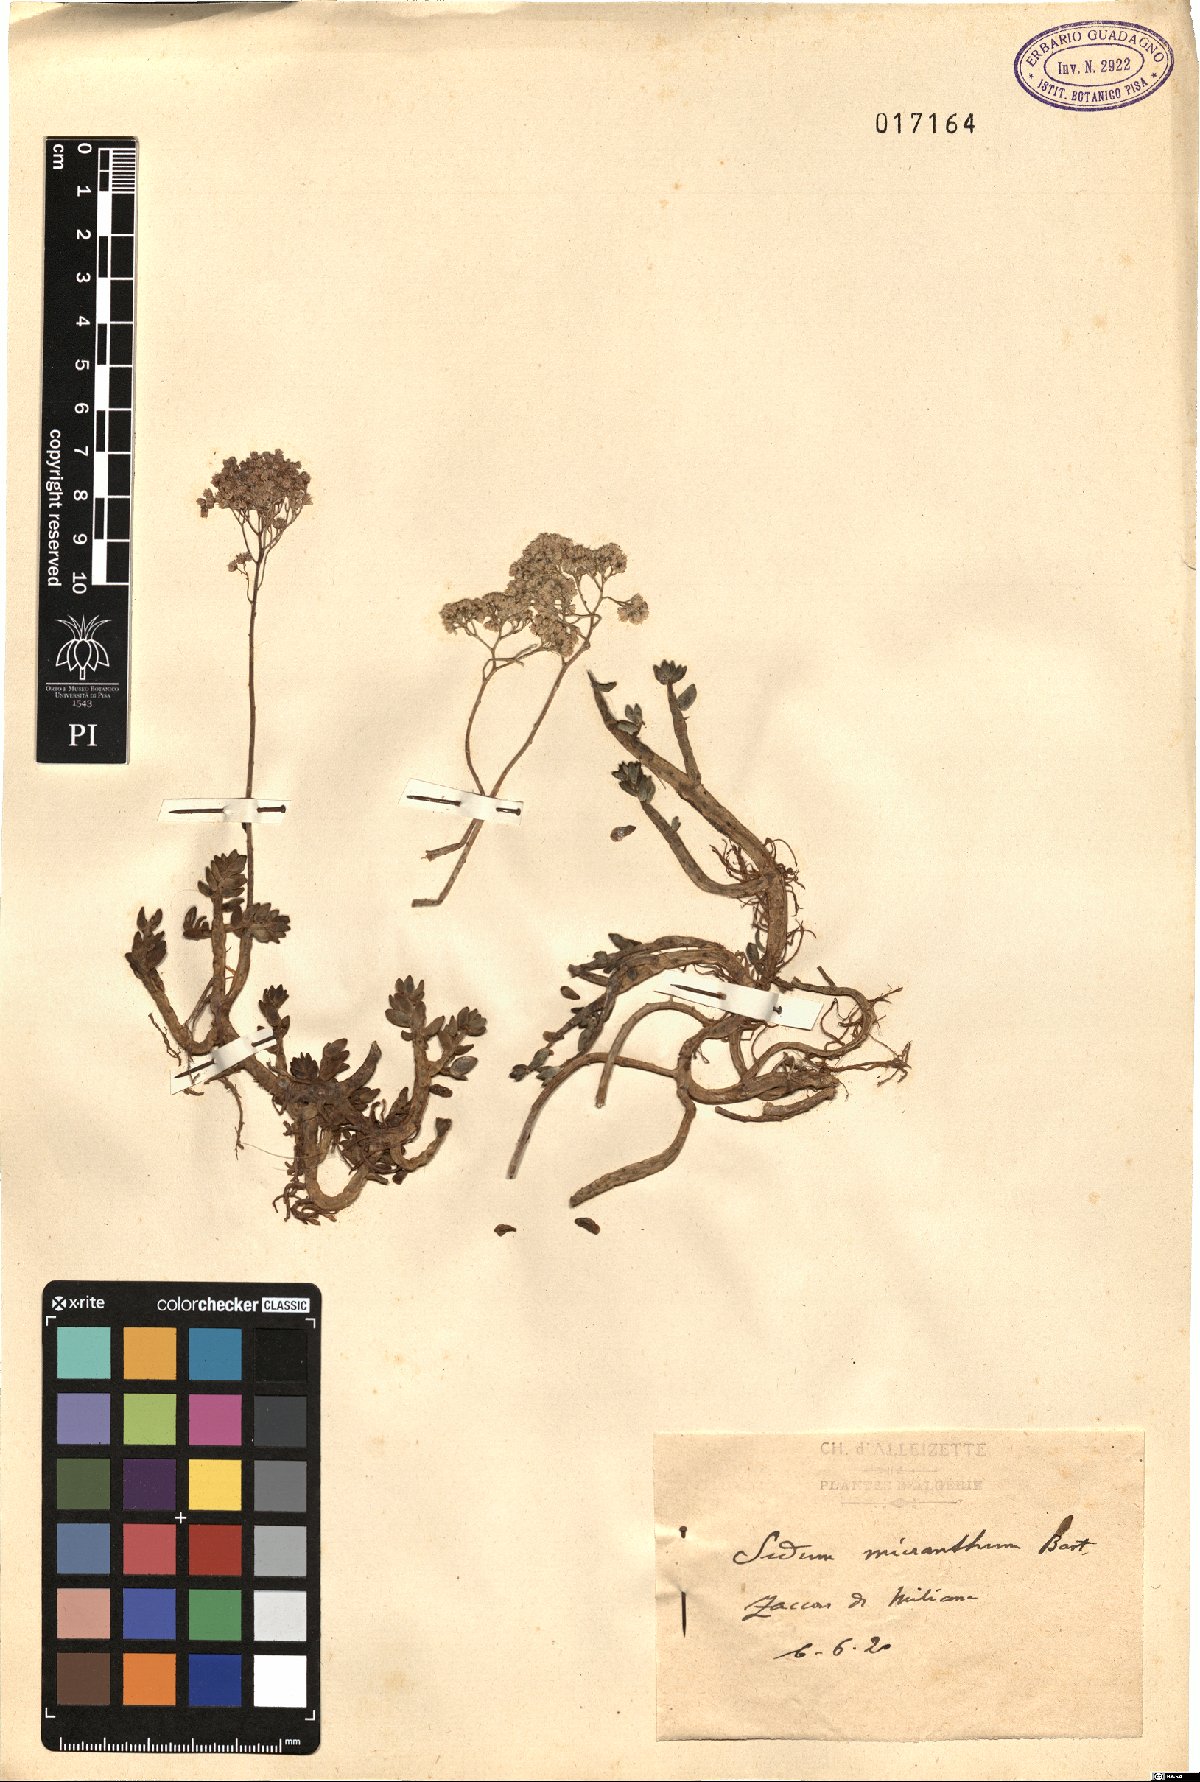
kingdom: Plantae
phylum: Tracheophyta
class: Magnoliopsida
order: Saxifragales
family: Crassulaceae
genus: Sedum
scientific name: Sedum album
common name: White stonecrop
